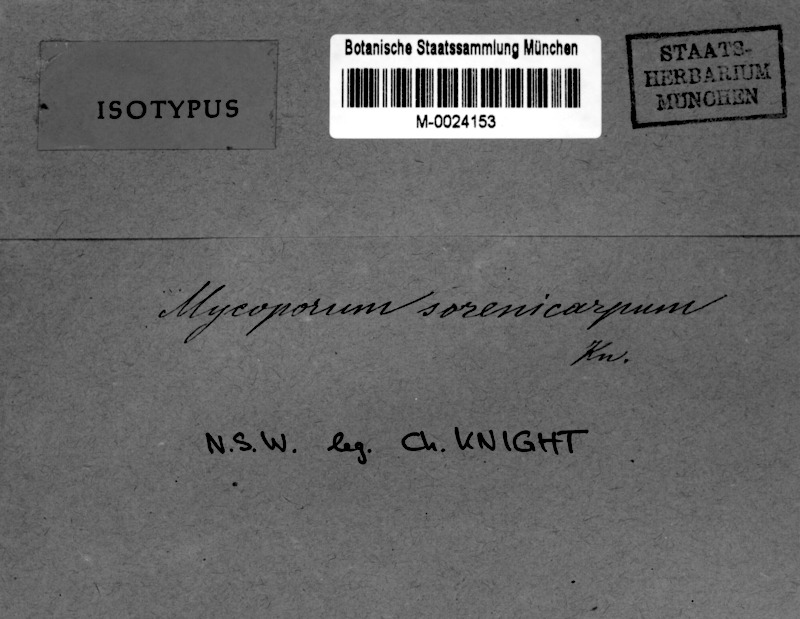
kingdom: Fungi
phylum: Ascomycota
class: Dothideomycetes
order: Dothideales
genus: Mycoporopsis
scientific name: Mycoporopsis sorenocarpa
